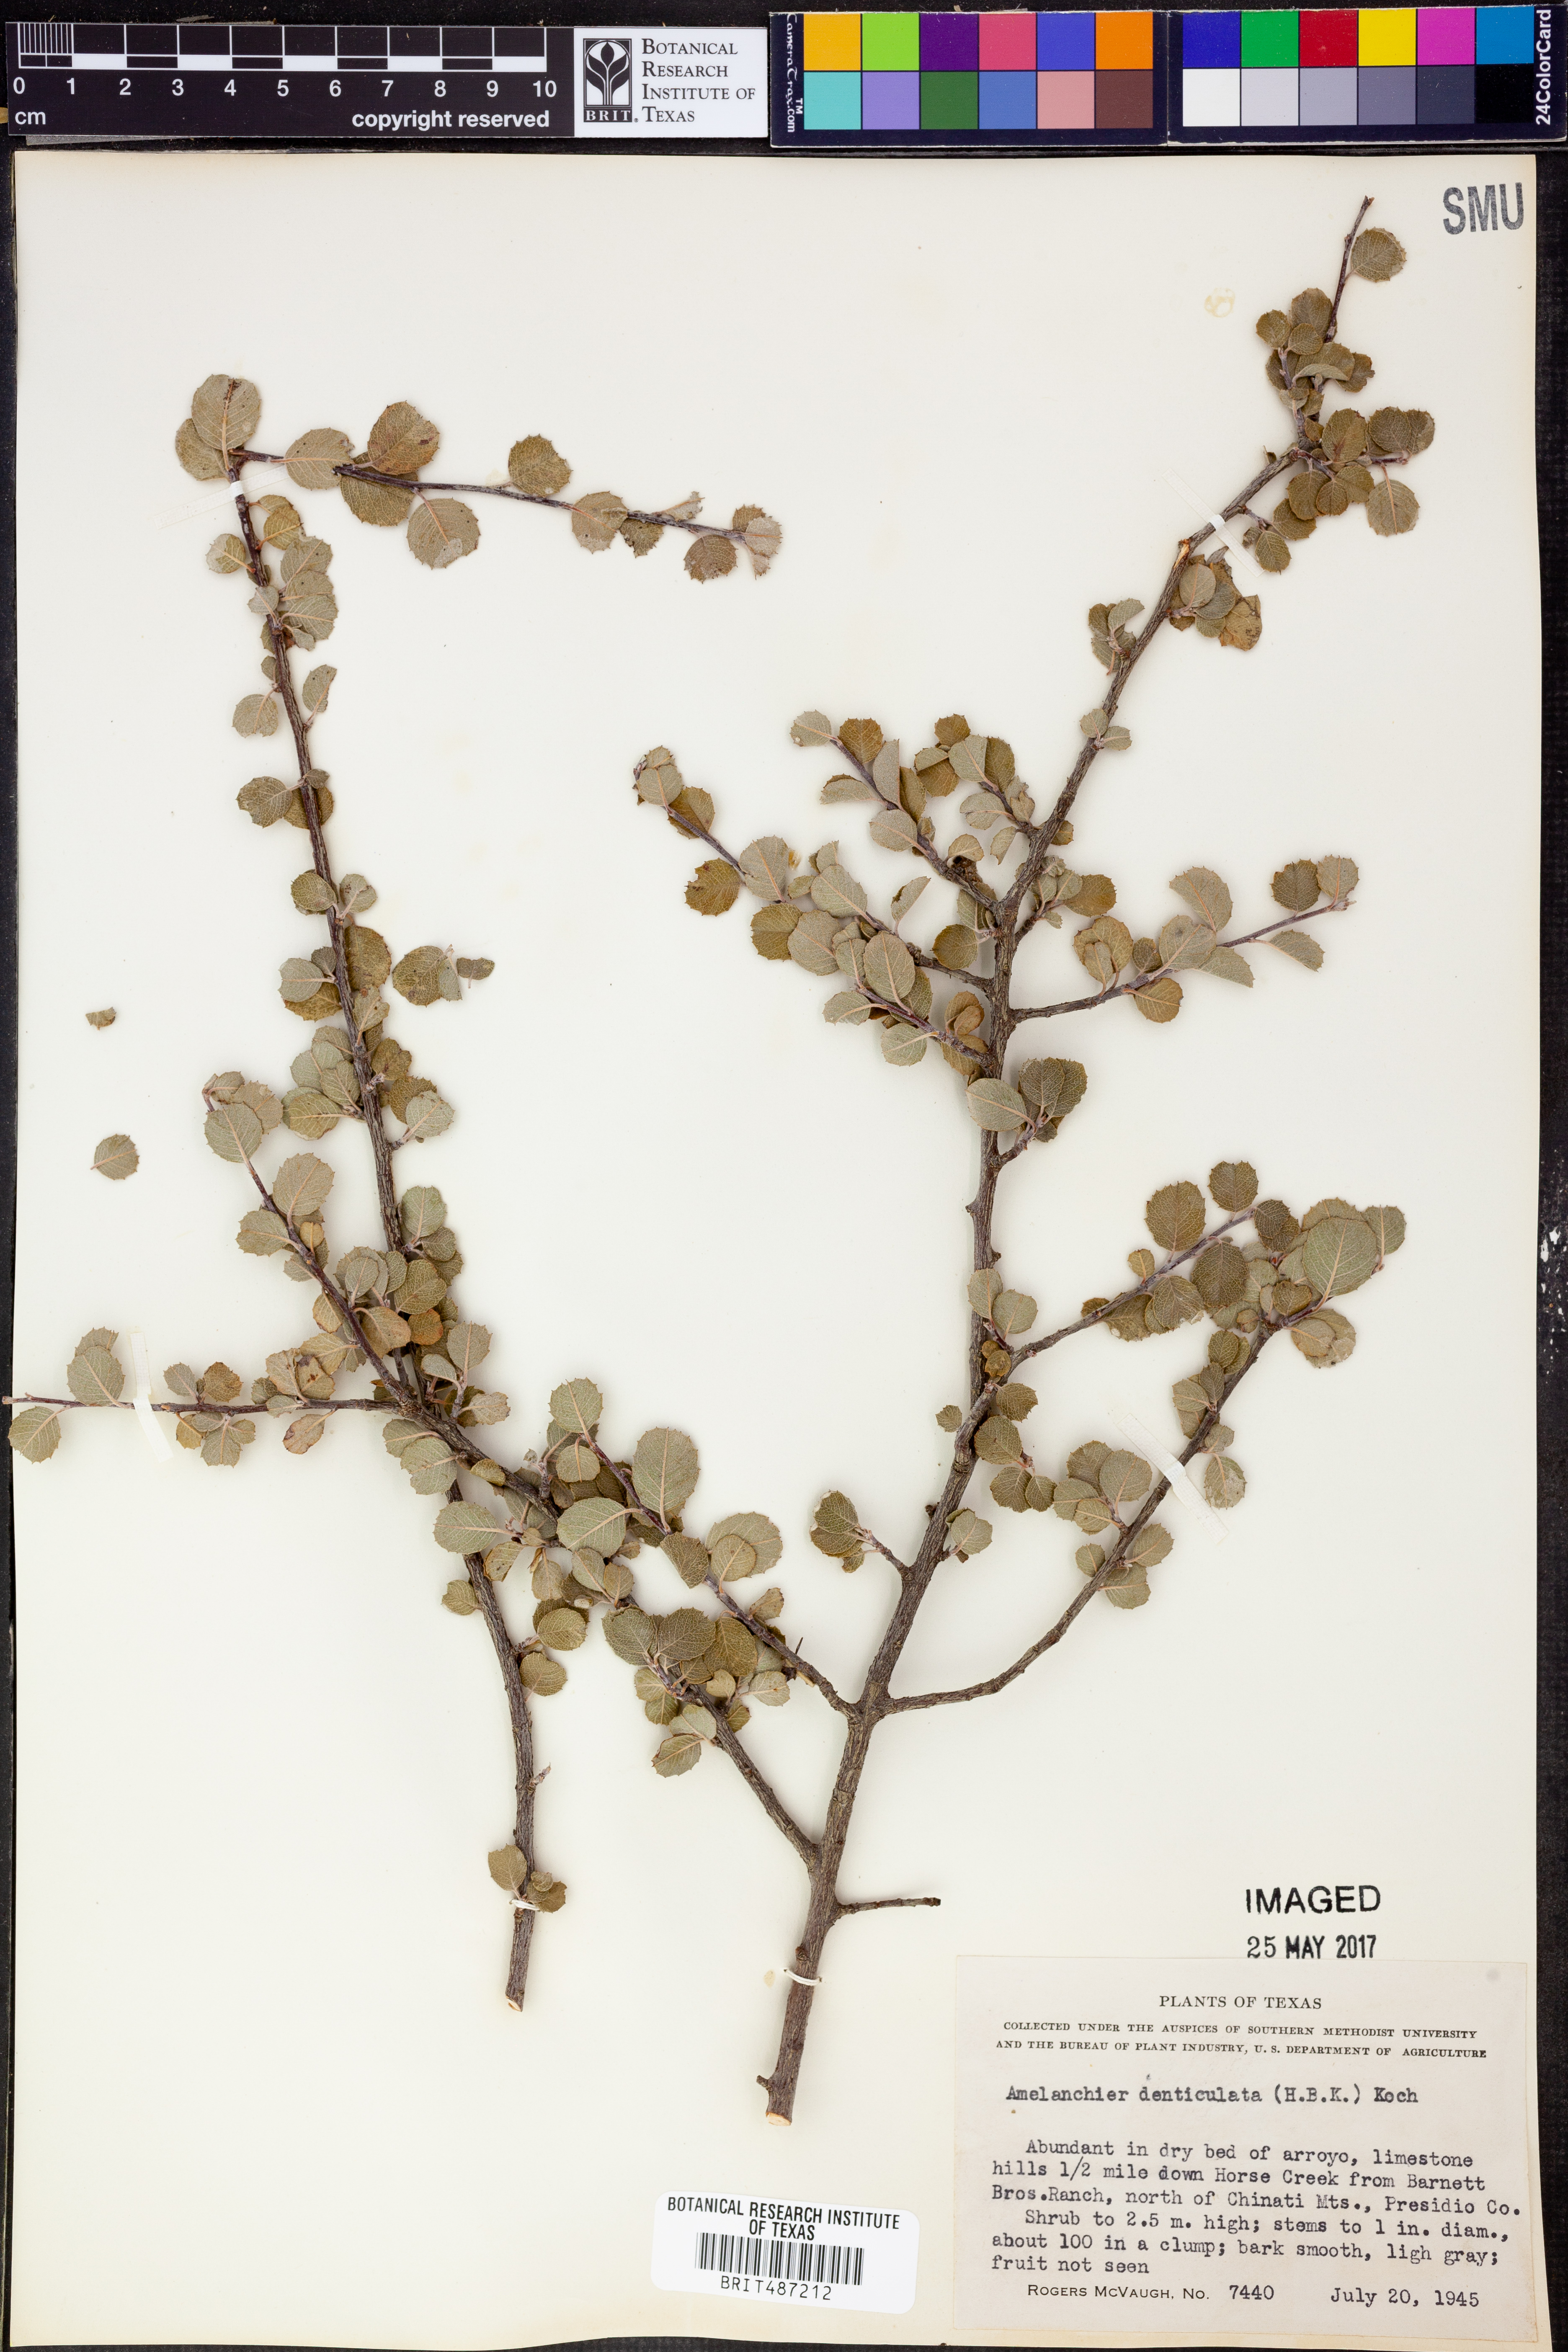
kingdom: Plantae
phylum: Tracheophyta
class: Magnoliopsida
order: Rosales
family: Rosaceae
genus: Malacomeles
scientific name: Malacomeles denticulata
